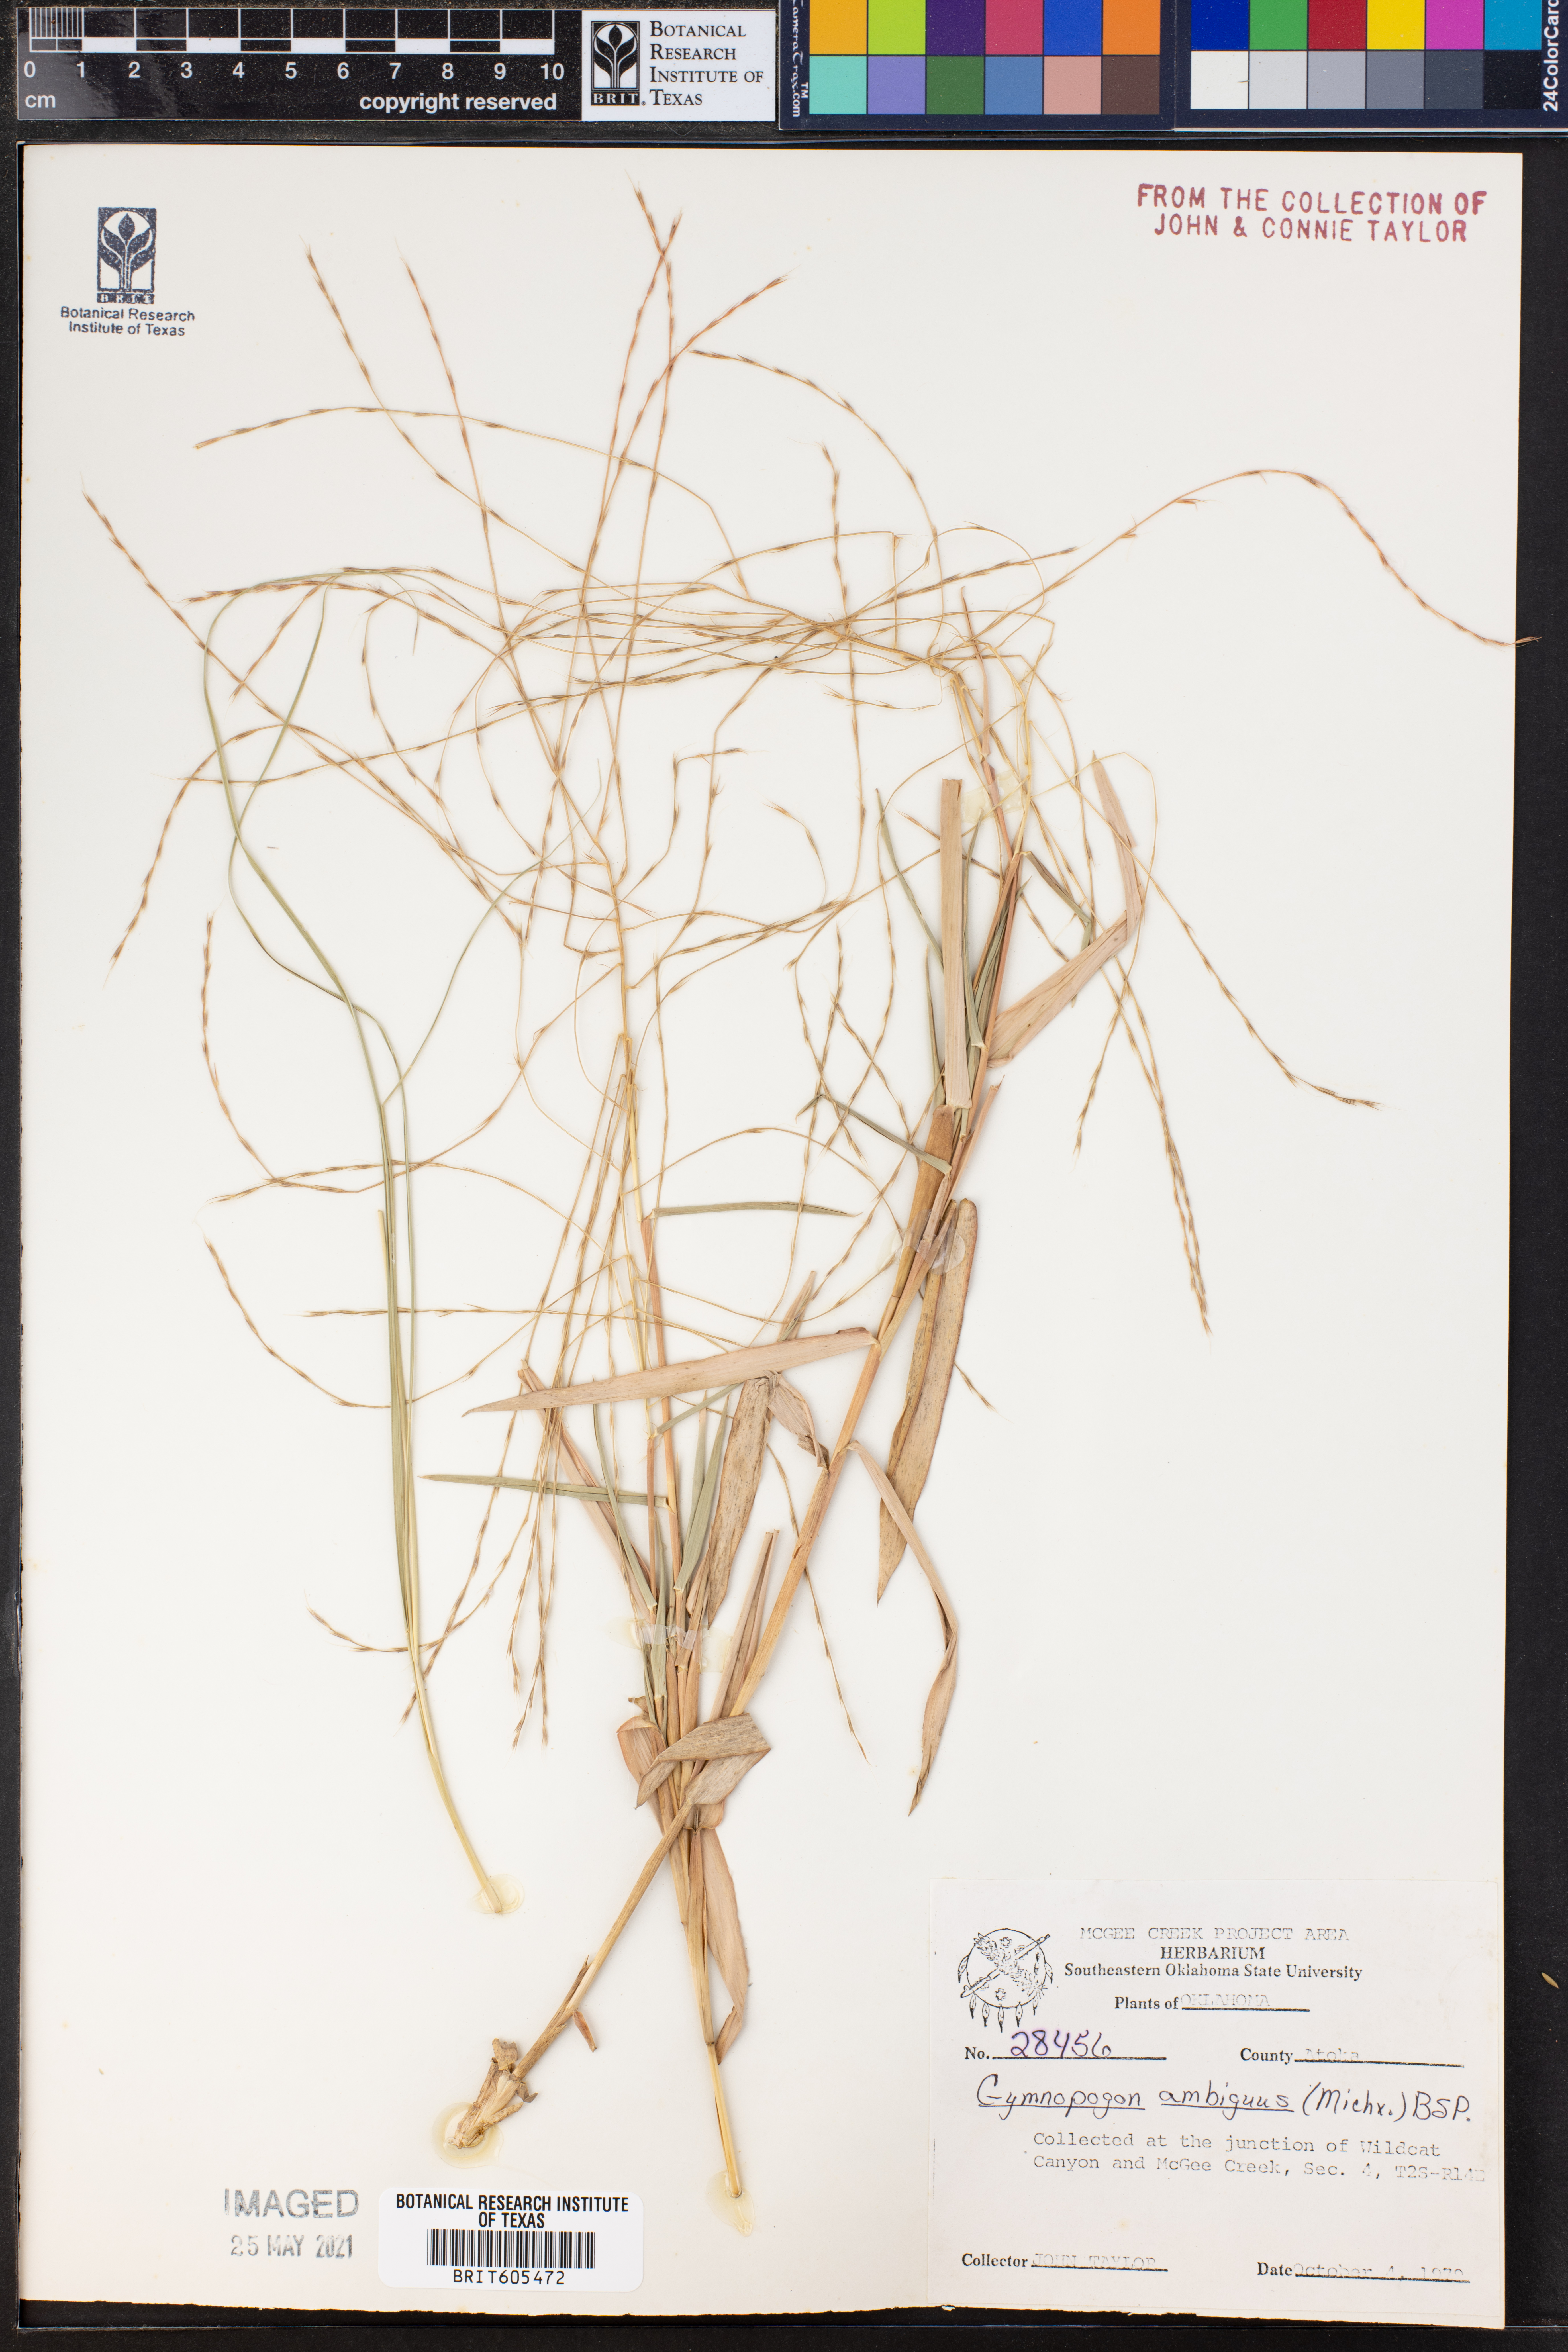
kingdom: Plantae
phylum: Tracheophyta
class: Liliopsida
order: Poales
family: Poaceae
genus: Gymnopogon
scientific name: Gymnopogon ambiguus
